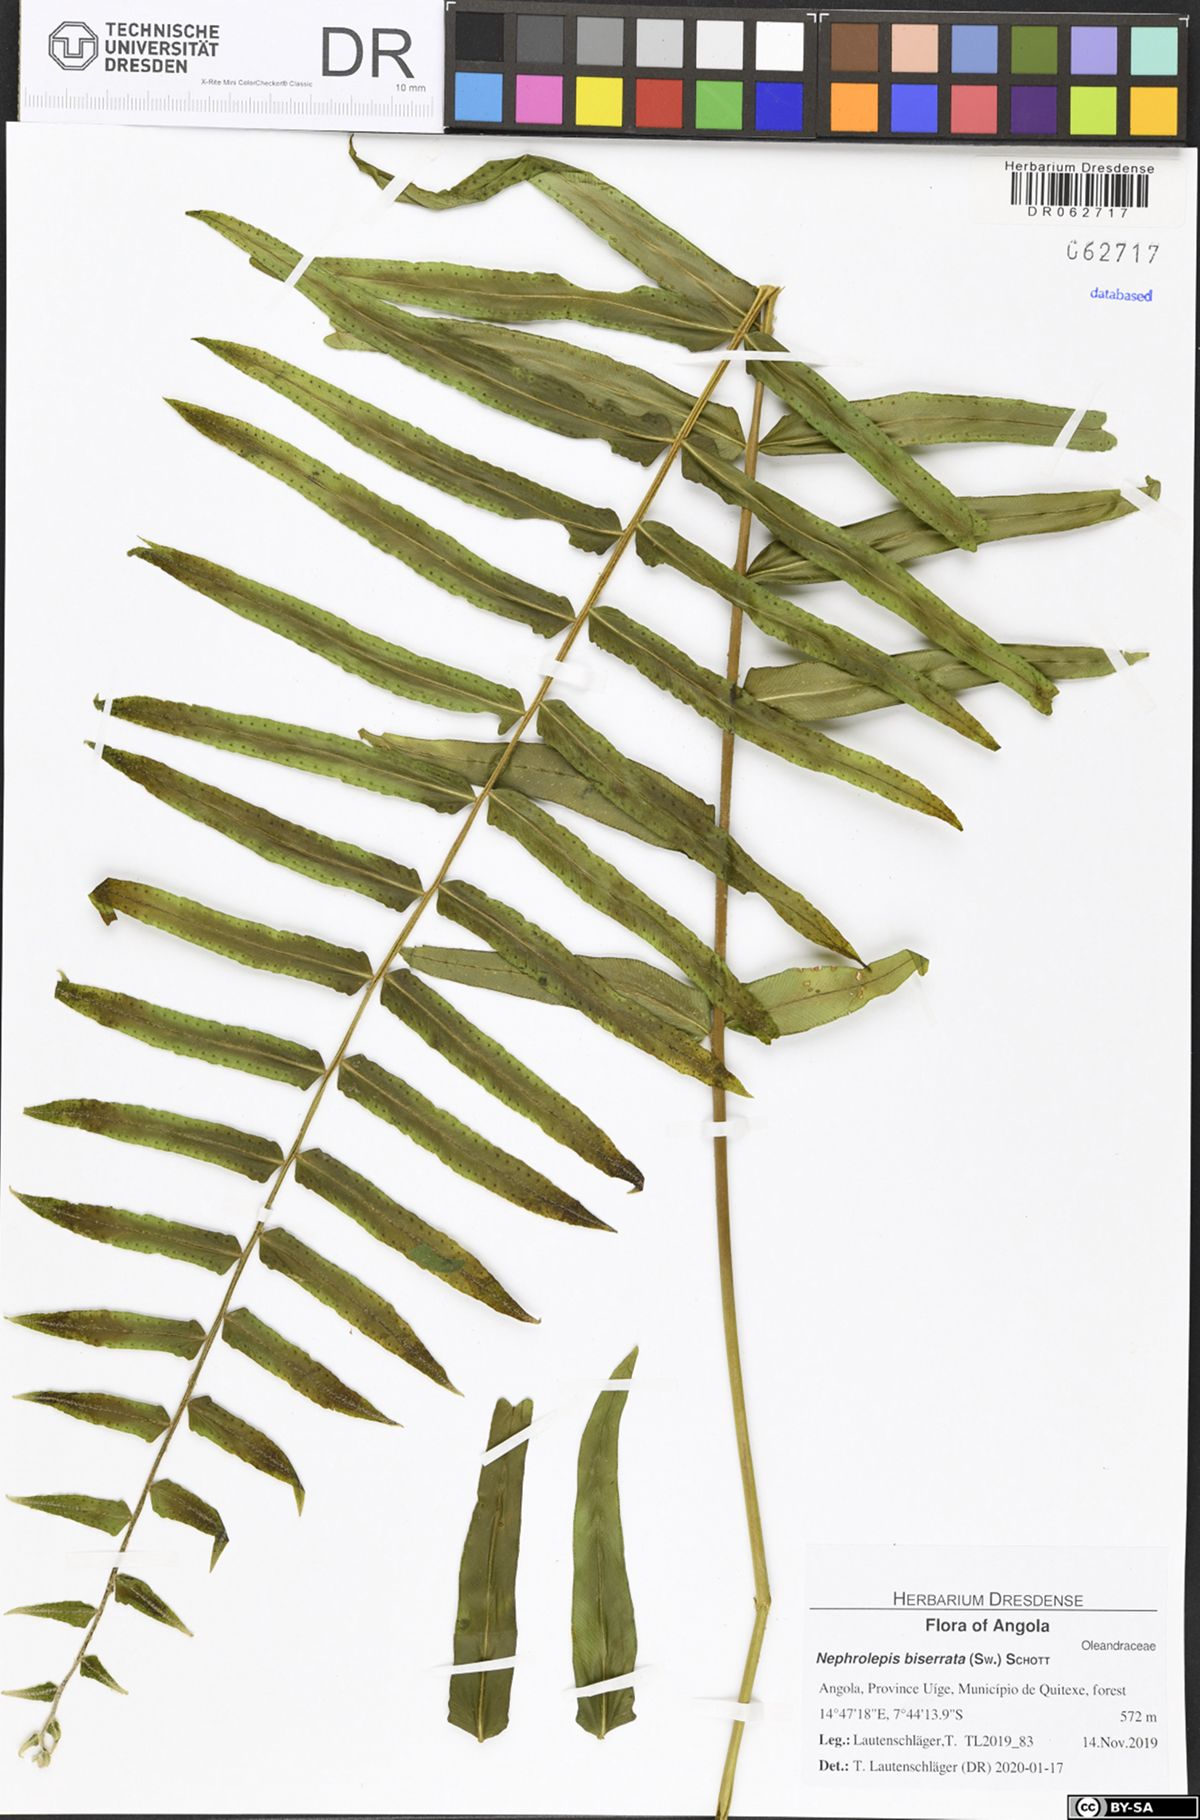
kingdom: Plantae
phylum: Tracheophyta
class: Polypodiopsida
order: Polypodiales
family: Nephrolepidaceae
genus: Nephrolepis
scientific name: Nephrolepis biserrata
